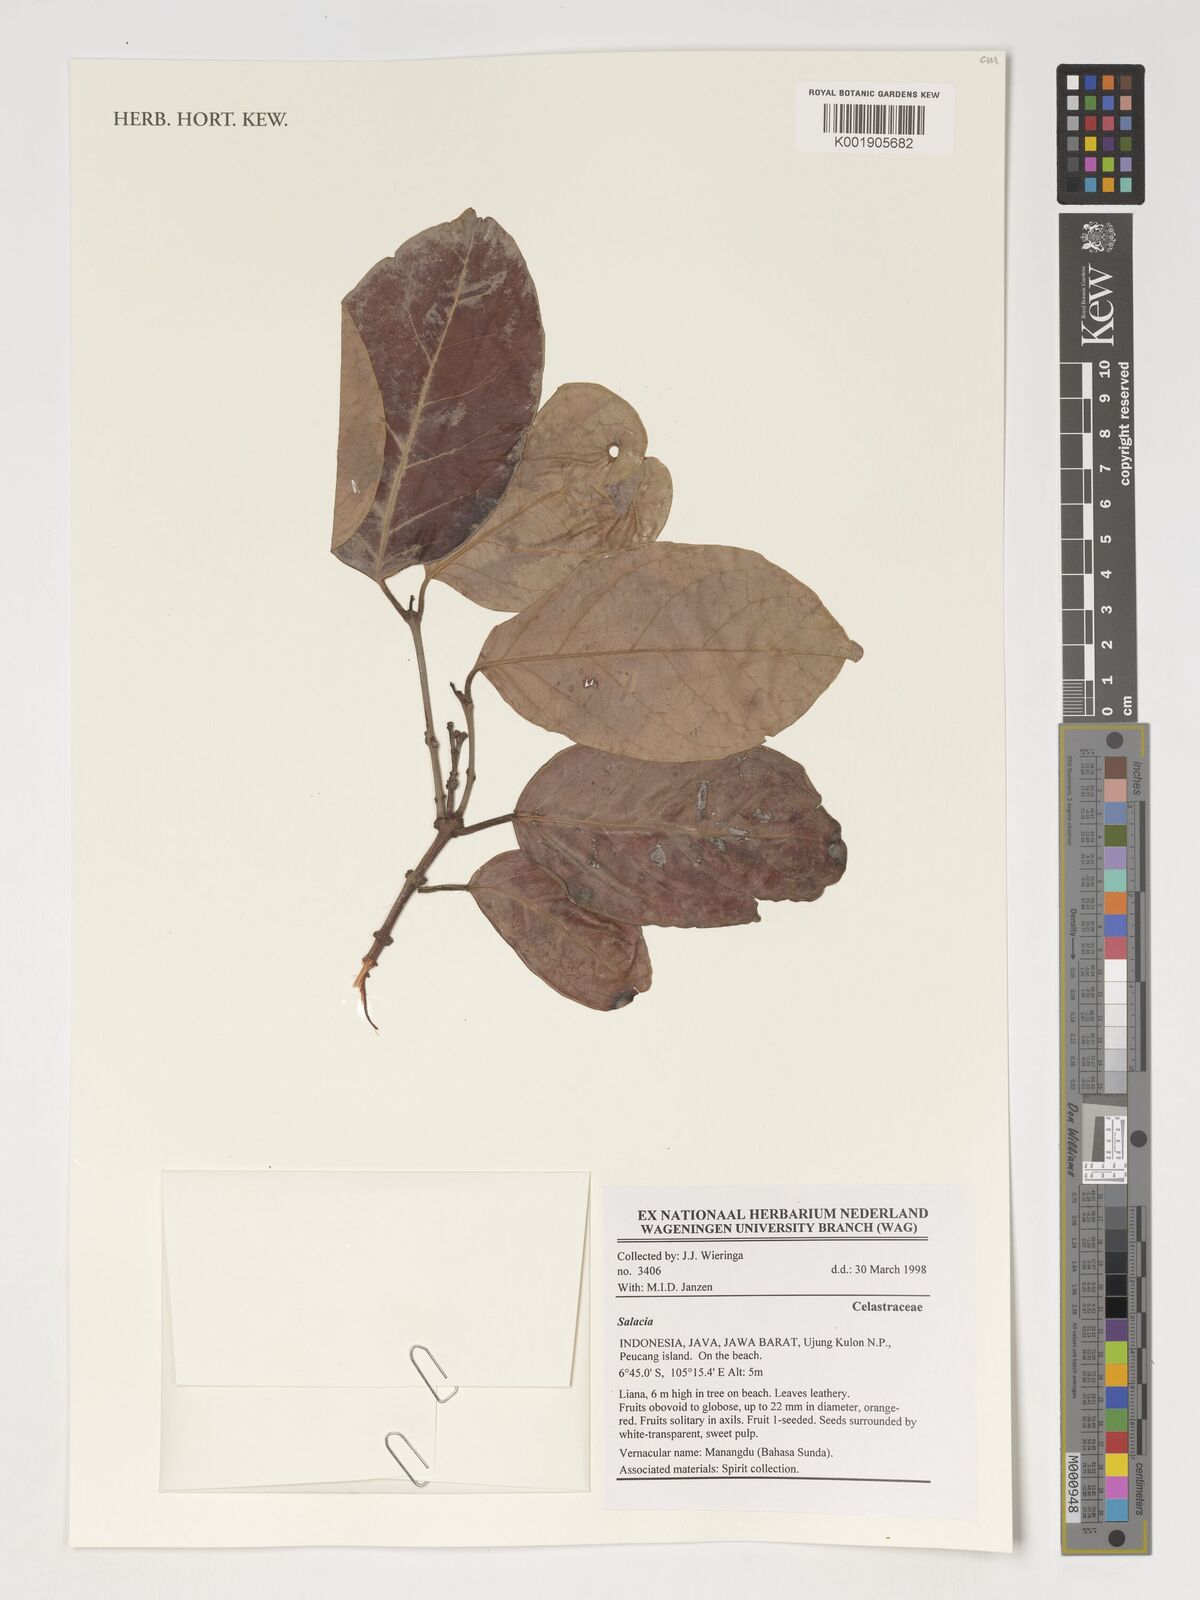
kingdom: Plantae
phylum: Tracheophyta
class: Magnoliopsida
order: Celastrales
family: Celastraceae
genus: Salacia
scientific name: Salacia
